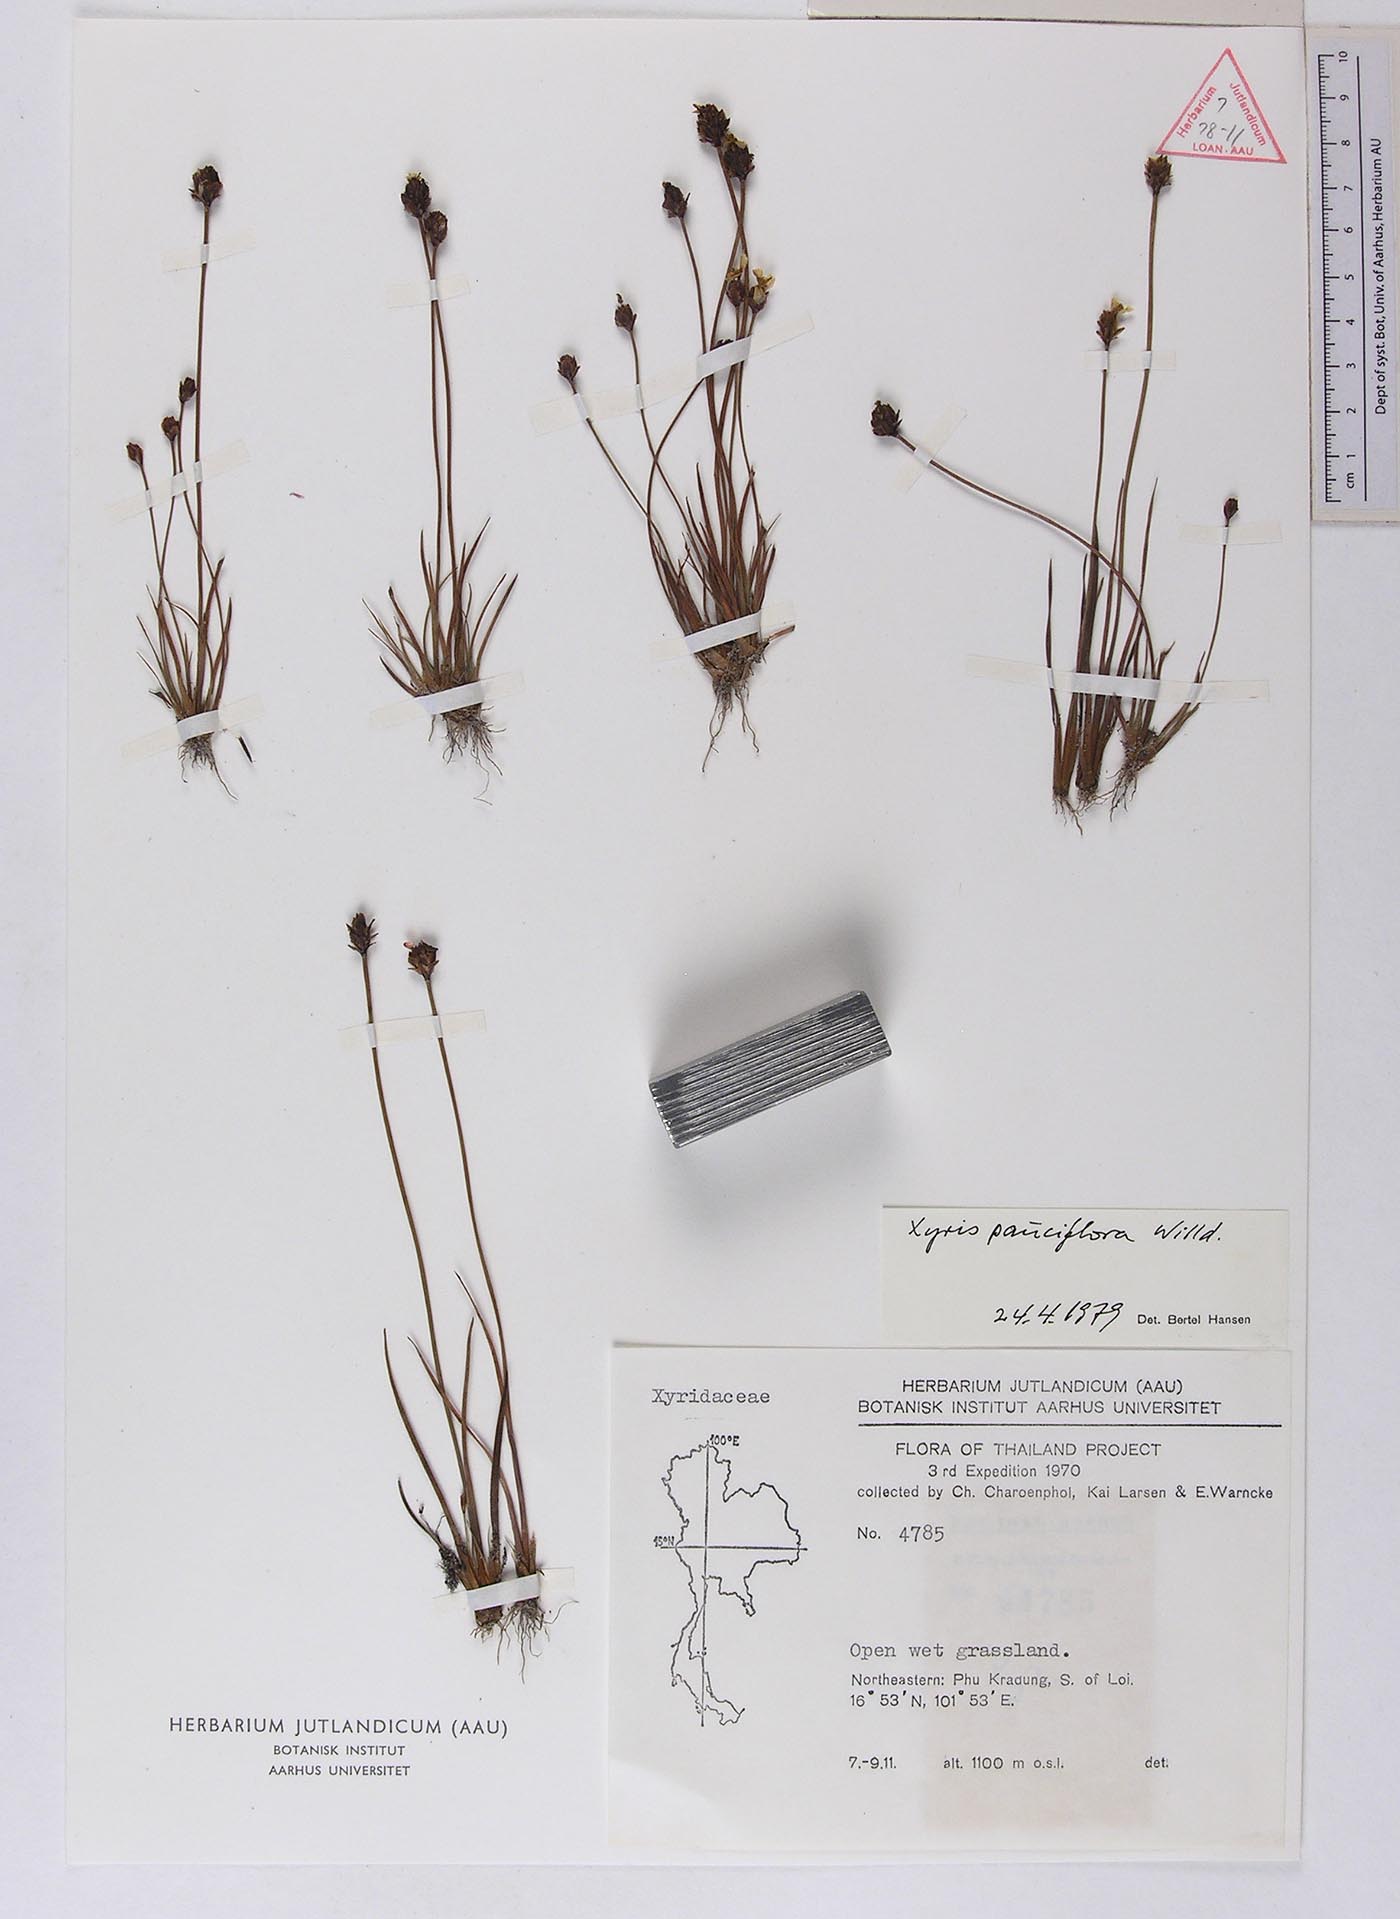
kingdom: Plantae
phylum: Tracheophyta
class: Liliopsida
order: Poales
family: Xyridaceae
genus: Xyris
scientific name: Xyris kradungensis
